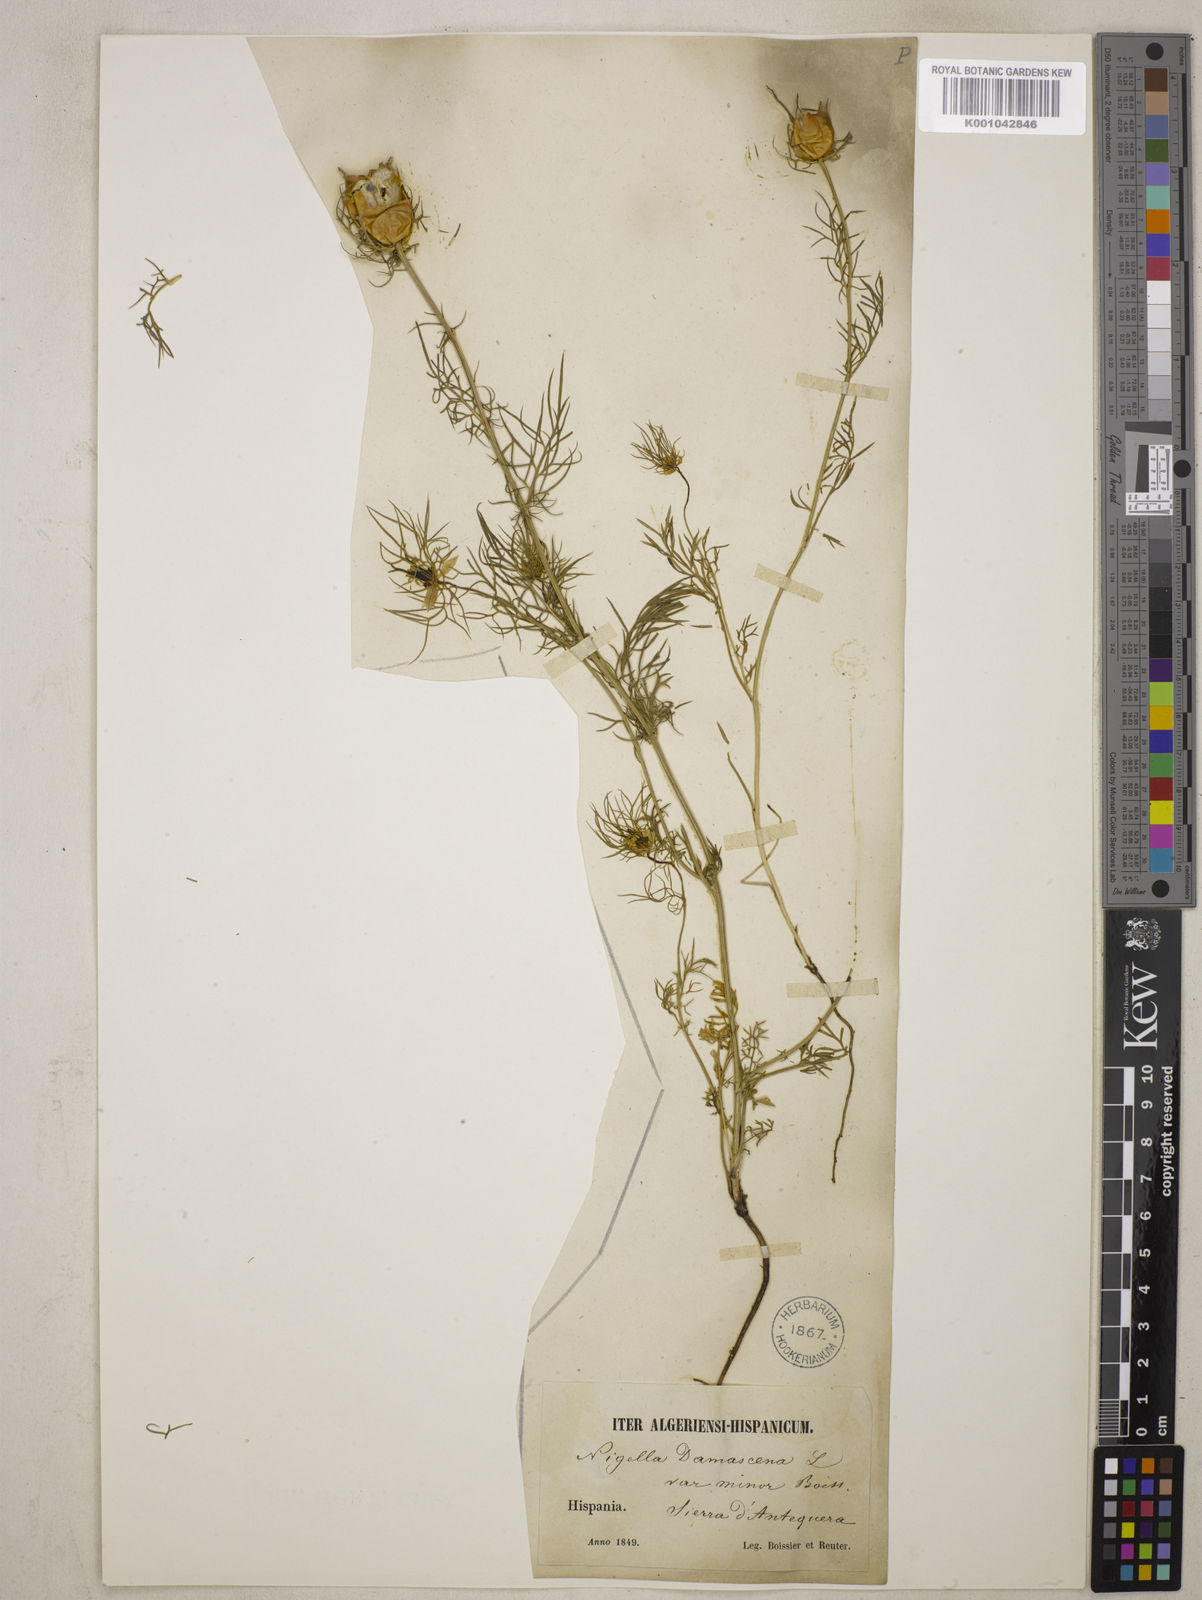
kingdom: Plantae
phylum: Tracheophyta
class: Magnoliopsida
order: Ranunculales
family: Ranunculaceae
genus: Nigella
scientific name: Nigella damascena
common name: Love-in-a-mist
